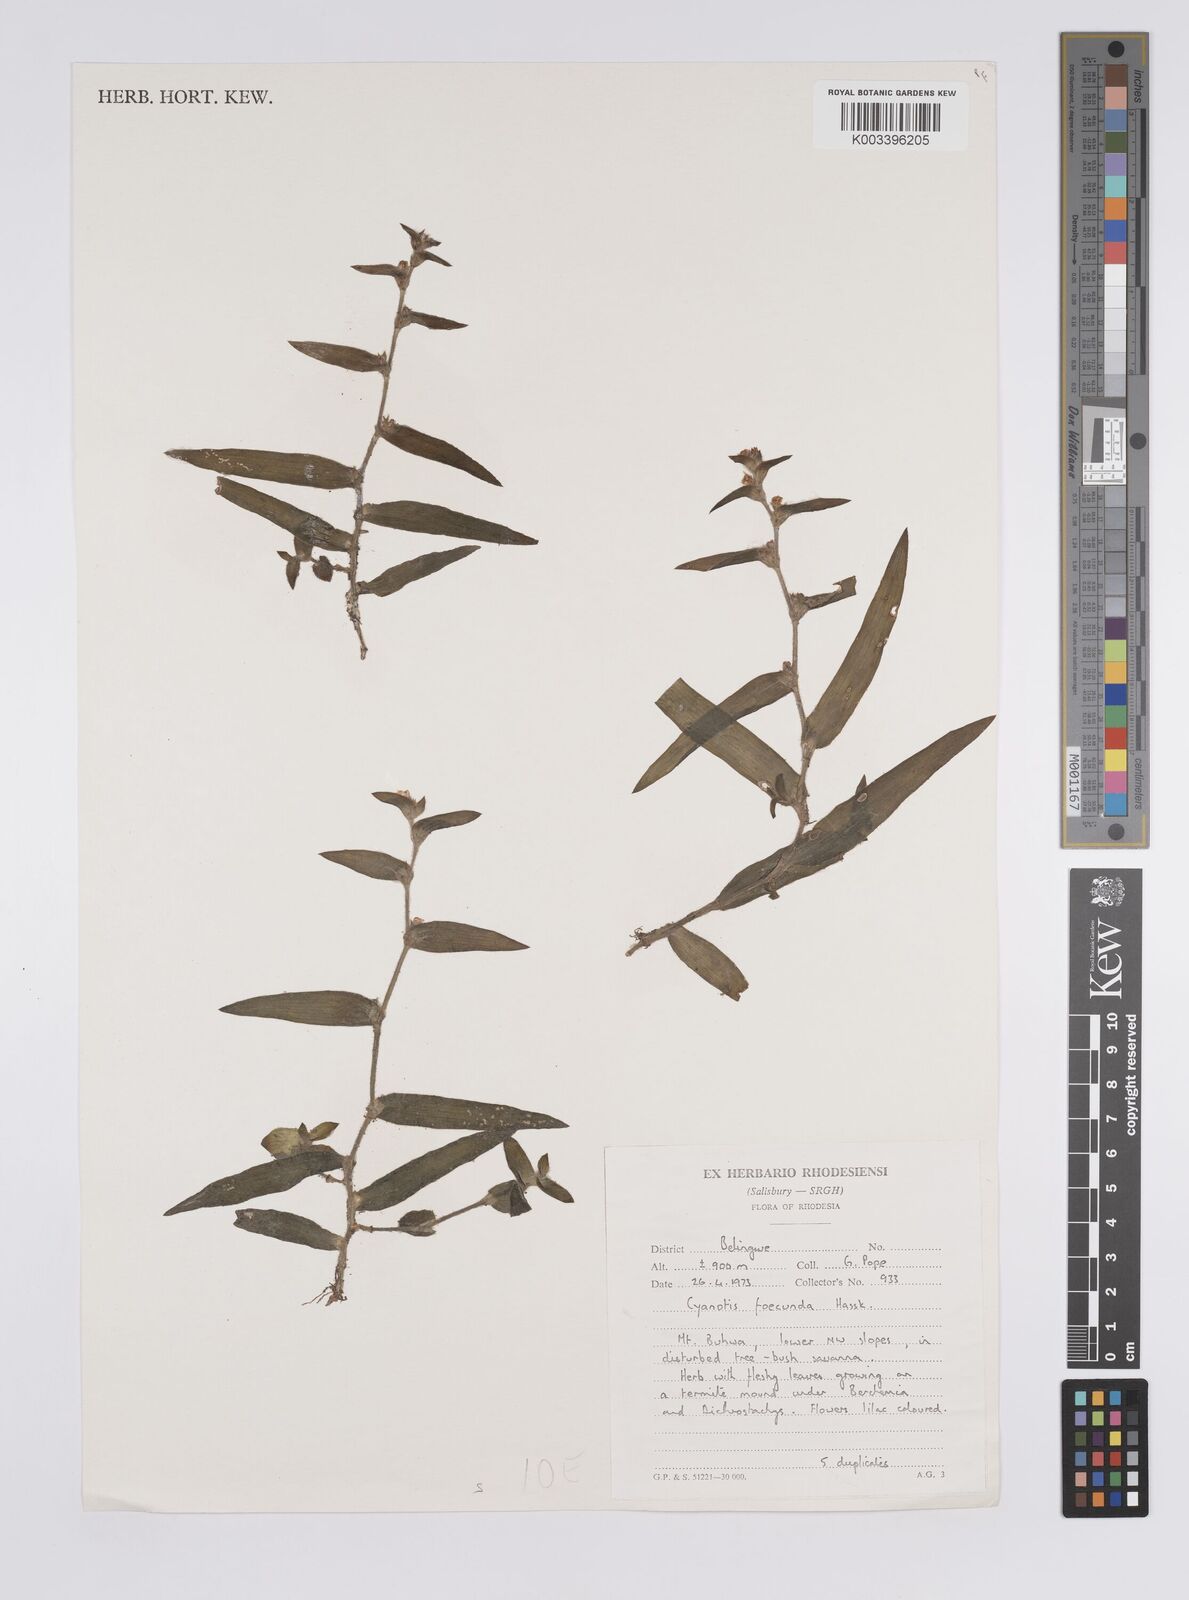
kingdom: Plantae
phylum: Tracheophyta
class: Liliopsida
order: Commelinales
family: Commelinaceae
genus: Cyanotis
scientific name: Cyanotis foecunda
